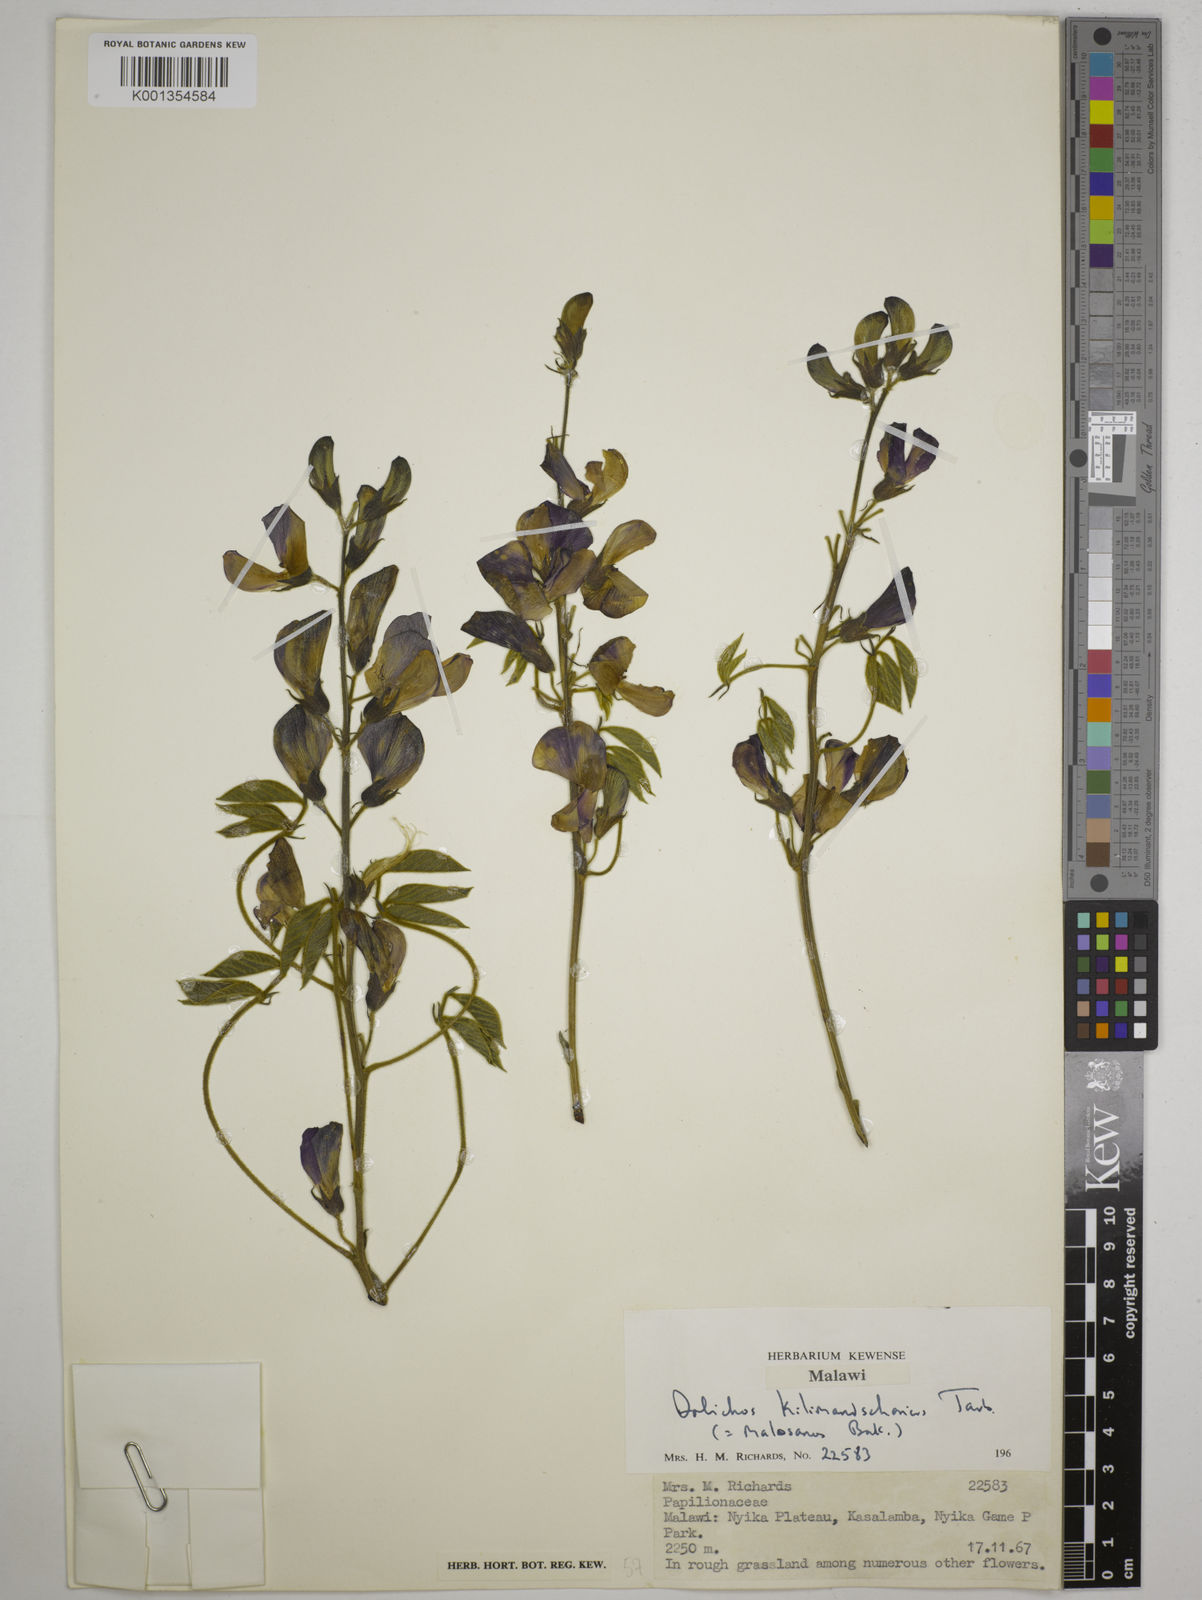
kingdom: Plantae
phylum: Tracheophyta
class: Magnoliopsida
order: Fabales
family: Fabaceae
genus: Dolichos
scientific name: Dolichos kilimandscharicus
